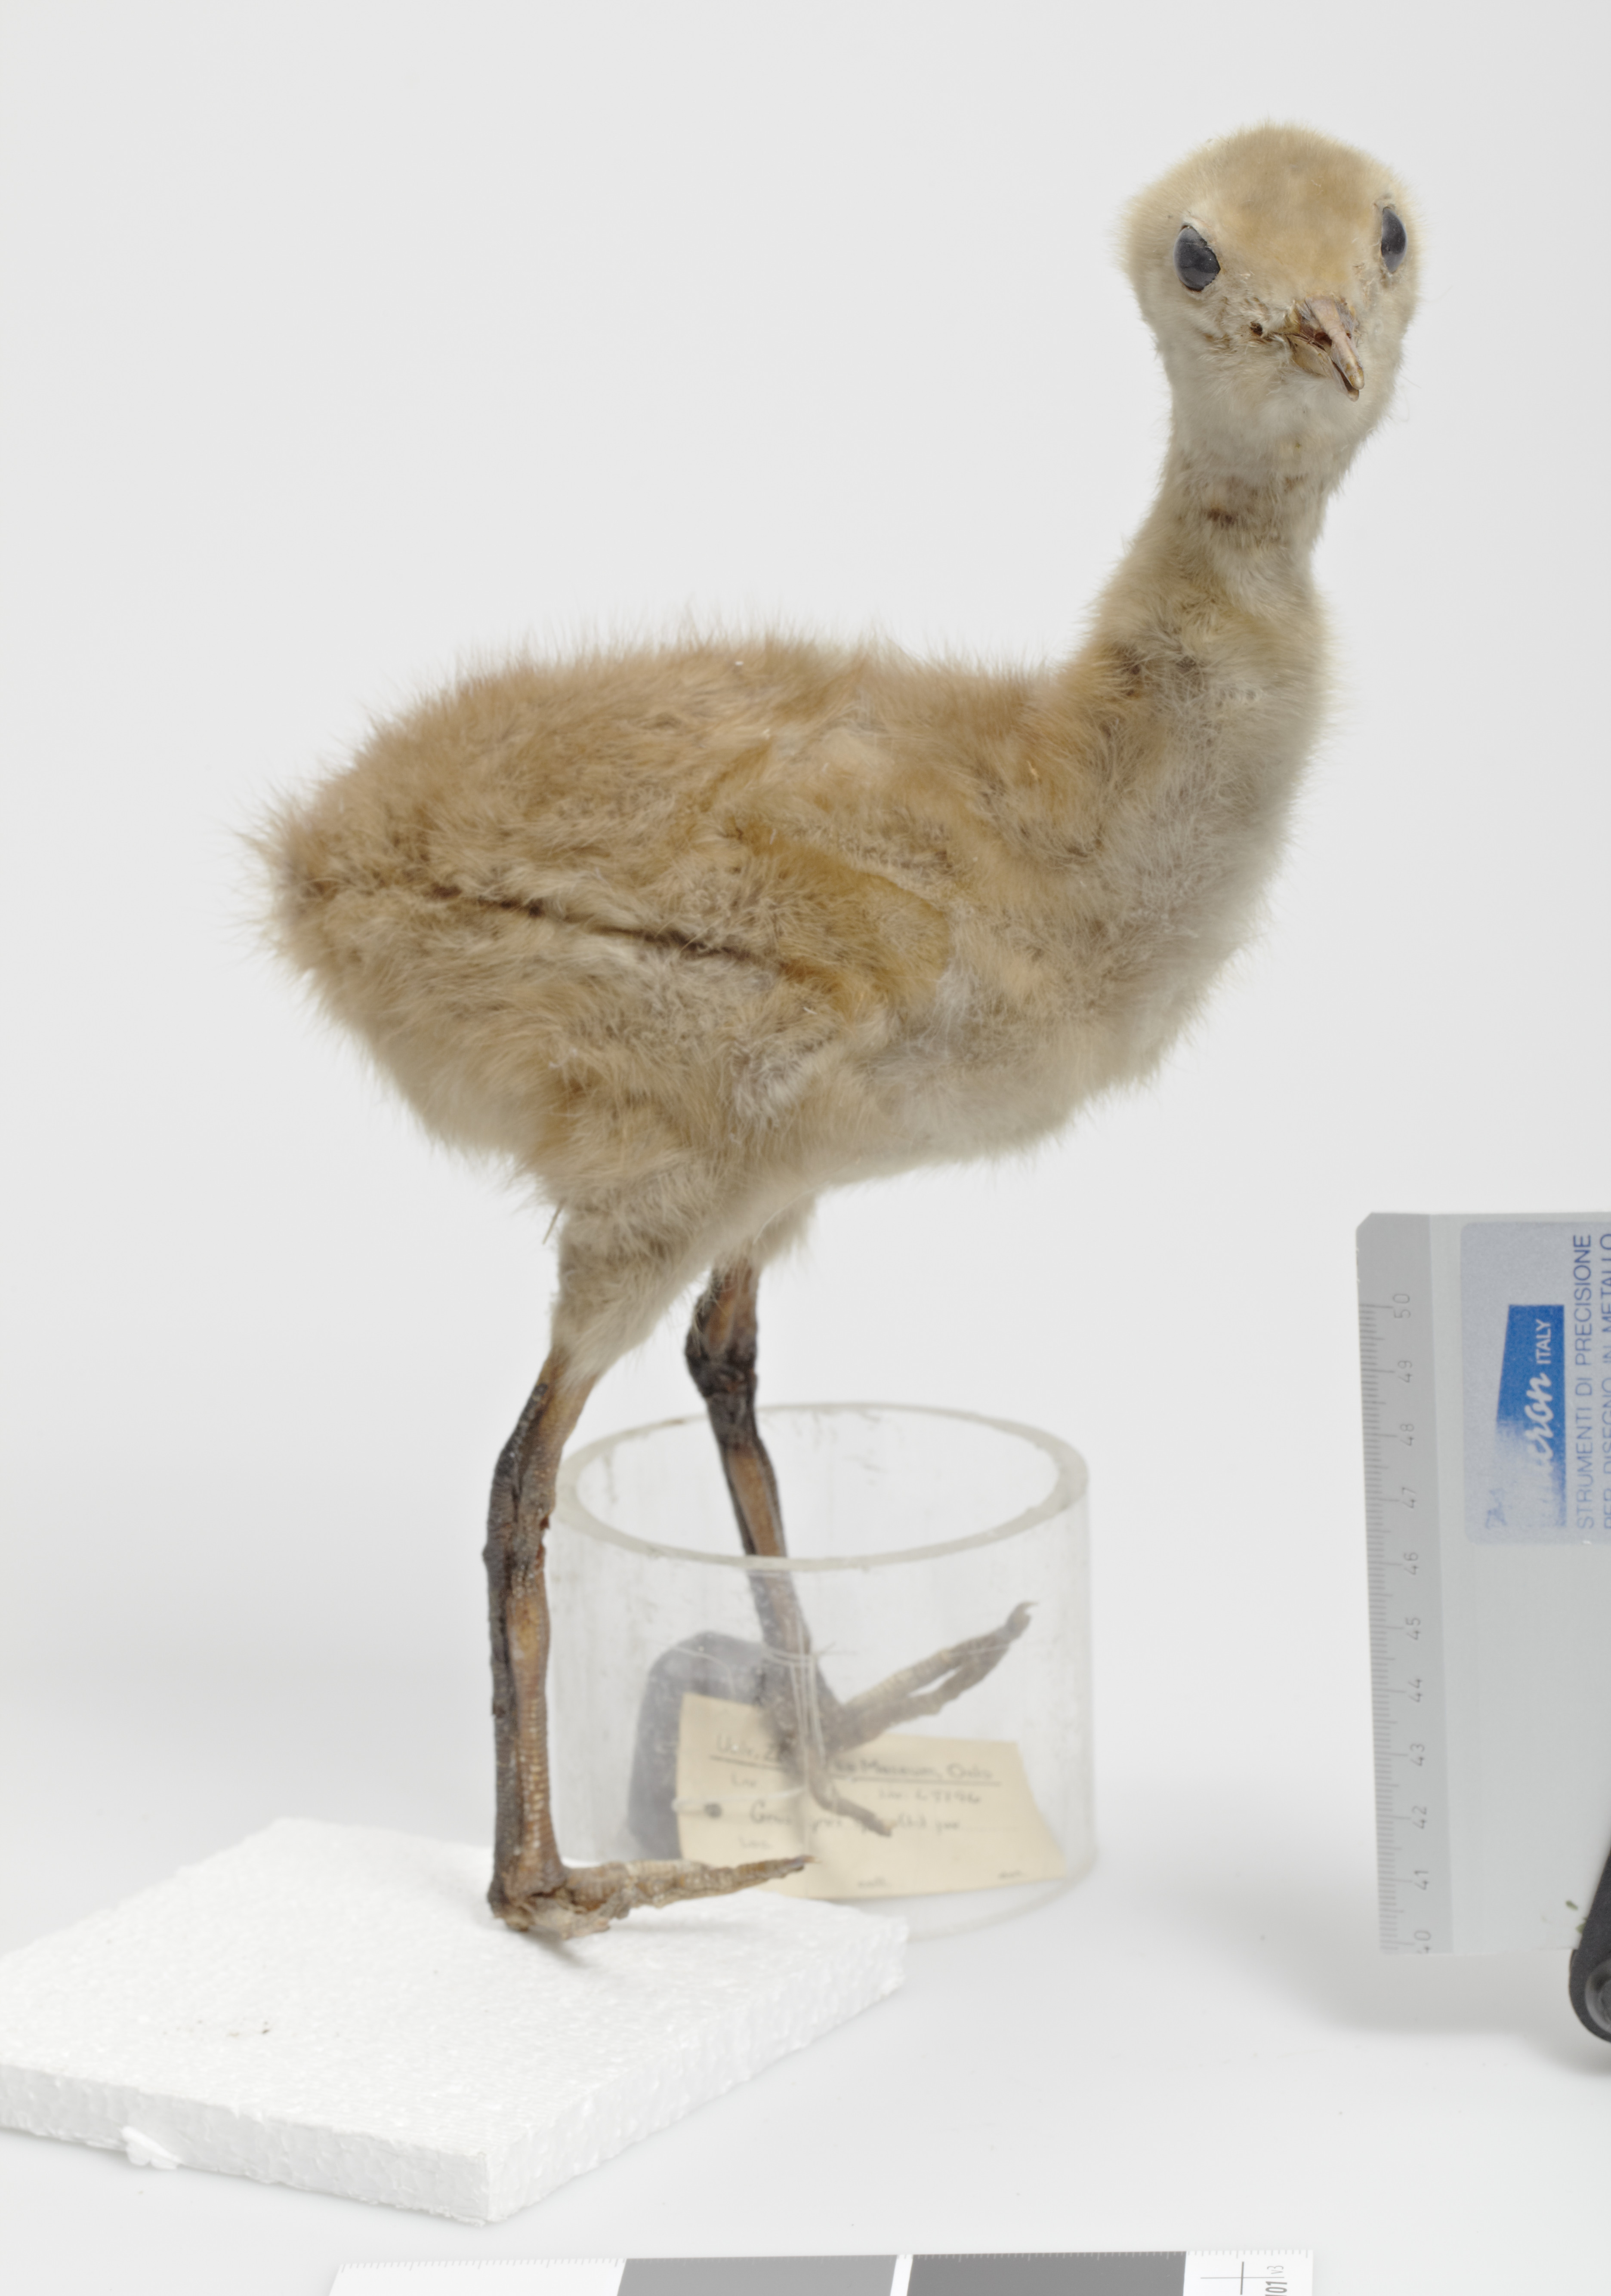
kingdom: Animalia
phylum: Chordata
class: Aves
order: Gruiformes
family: Gruidae
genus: Grus
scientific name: Grus grus
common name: Common crane
